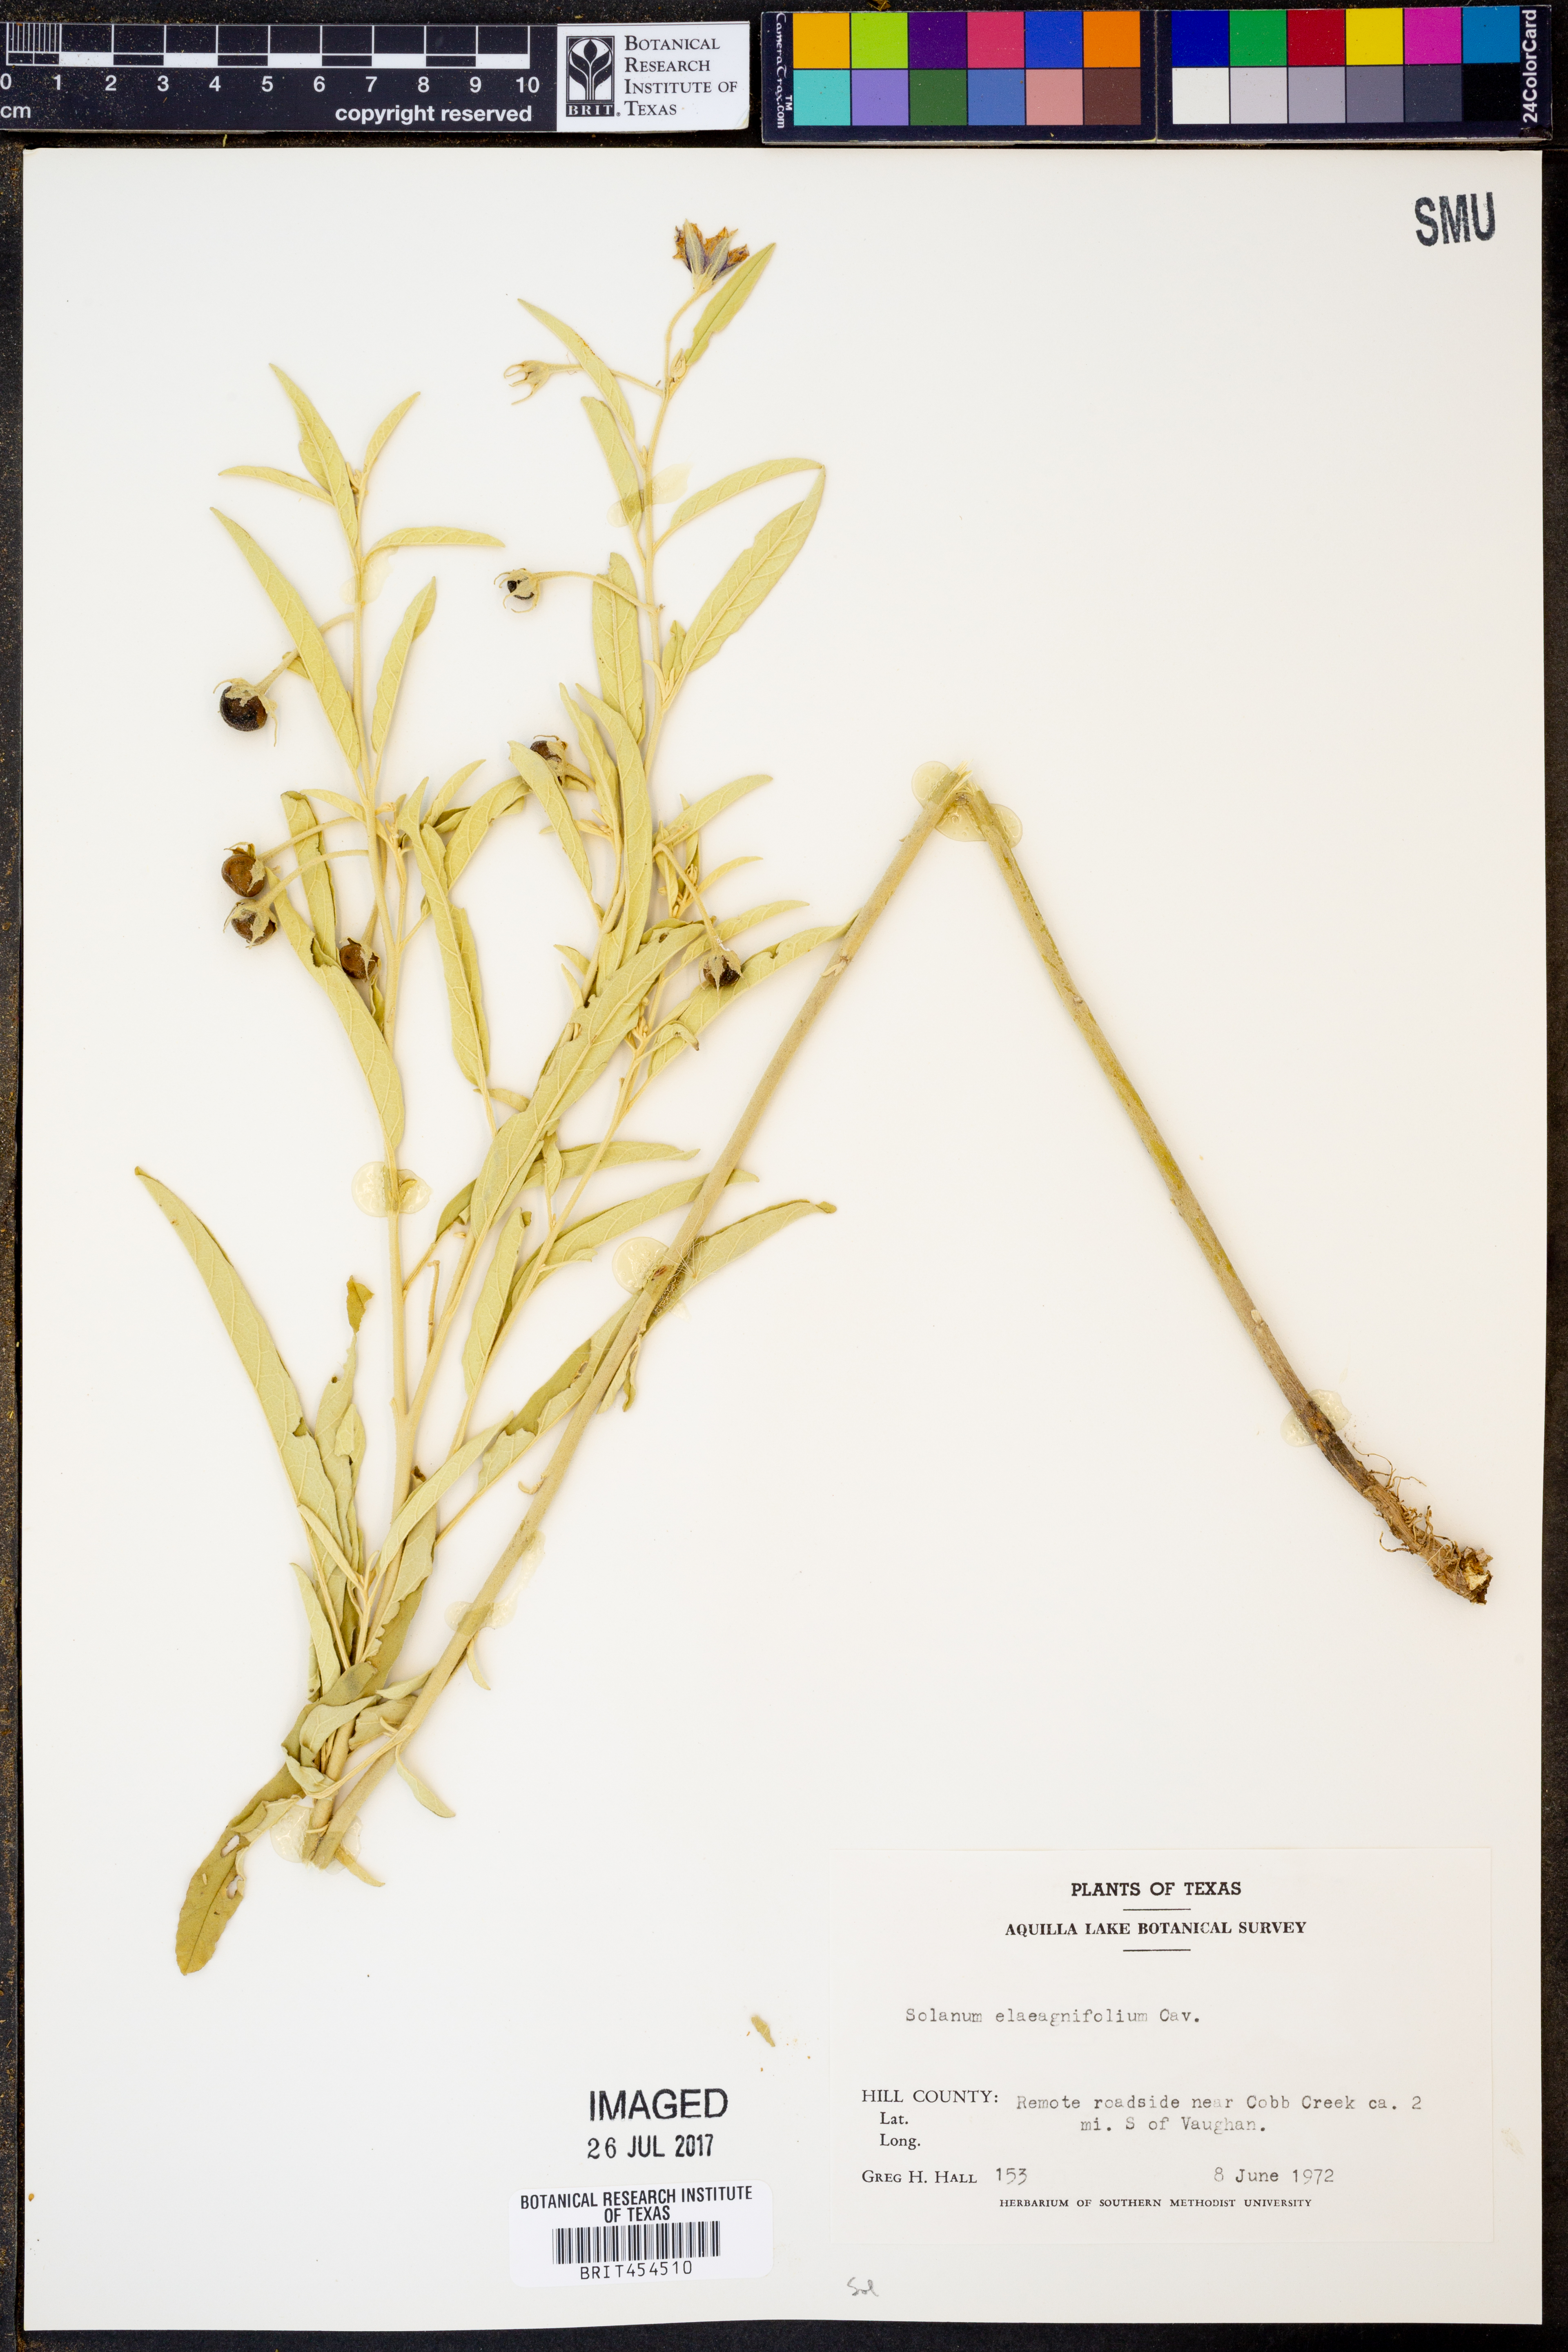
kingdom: Plantae
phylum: Tracheophyta
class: Magnoliopsida
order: Solanales
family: Solanaceae
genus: Solanum
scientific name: Solanum elaeagnifolium
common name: Silverleaf nightshade
